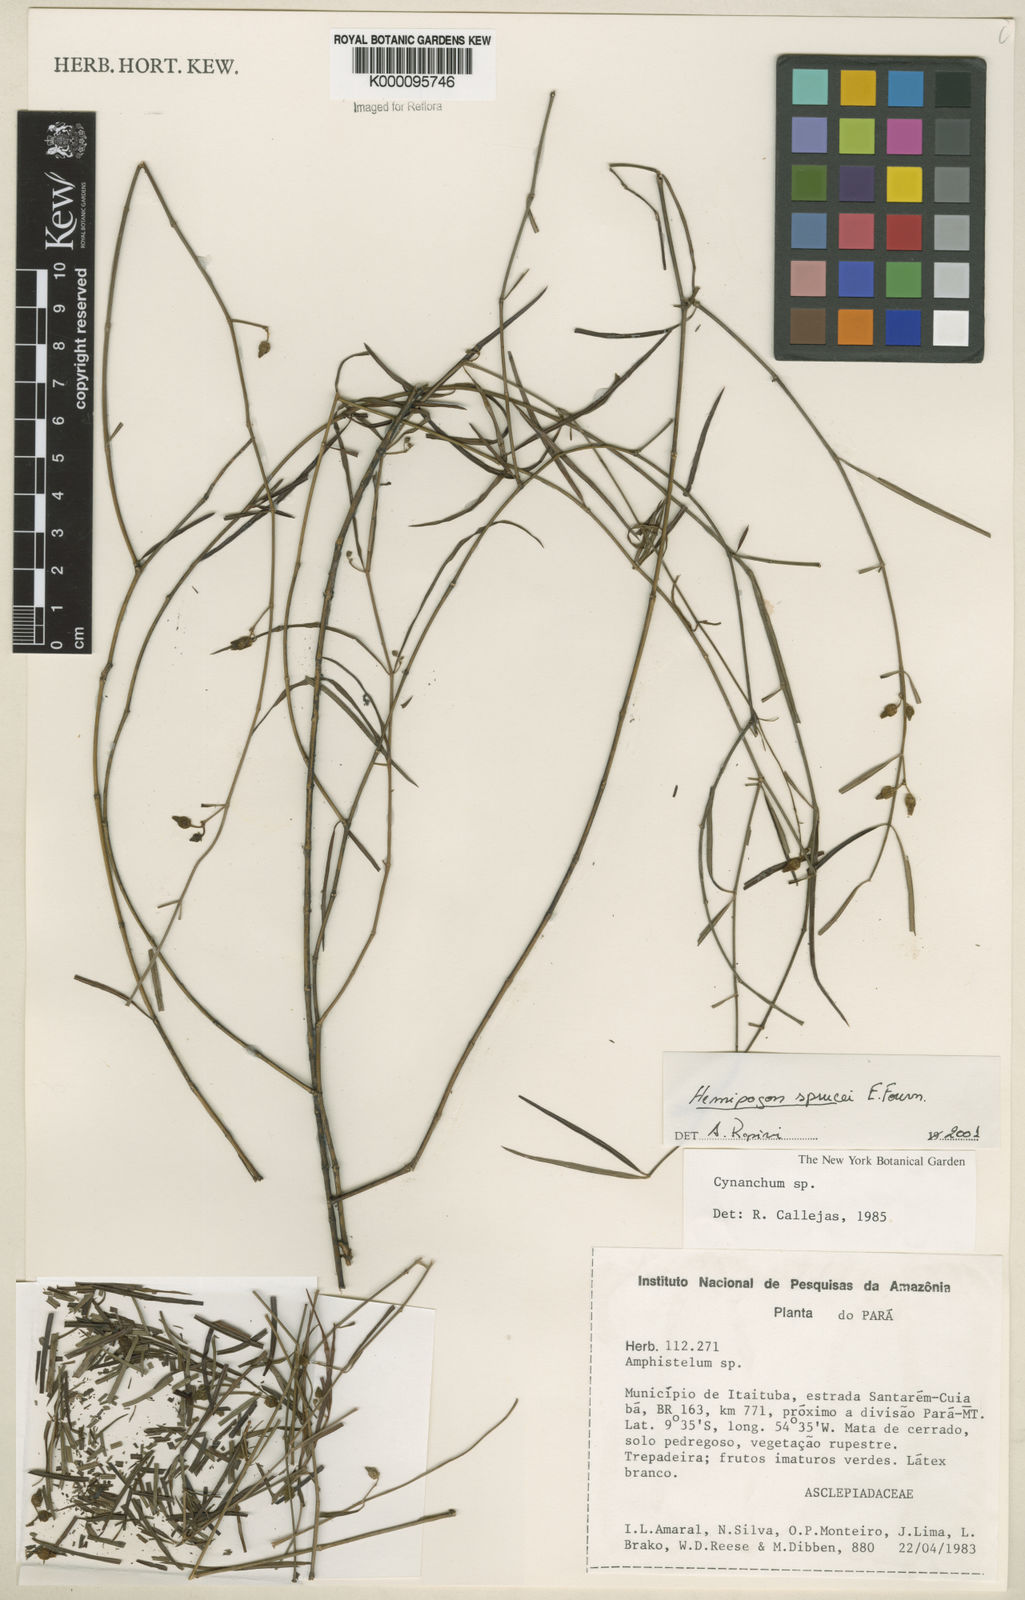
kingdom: Plantae
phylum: Tracheophyta
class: Magnoliopsida
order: Gentianales
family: Apocynaceae
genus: Hemipogon
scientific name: Hemipogon sprucei
